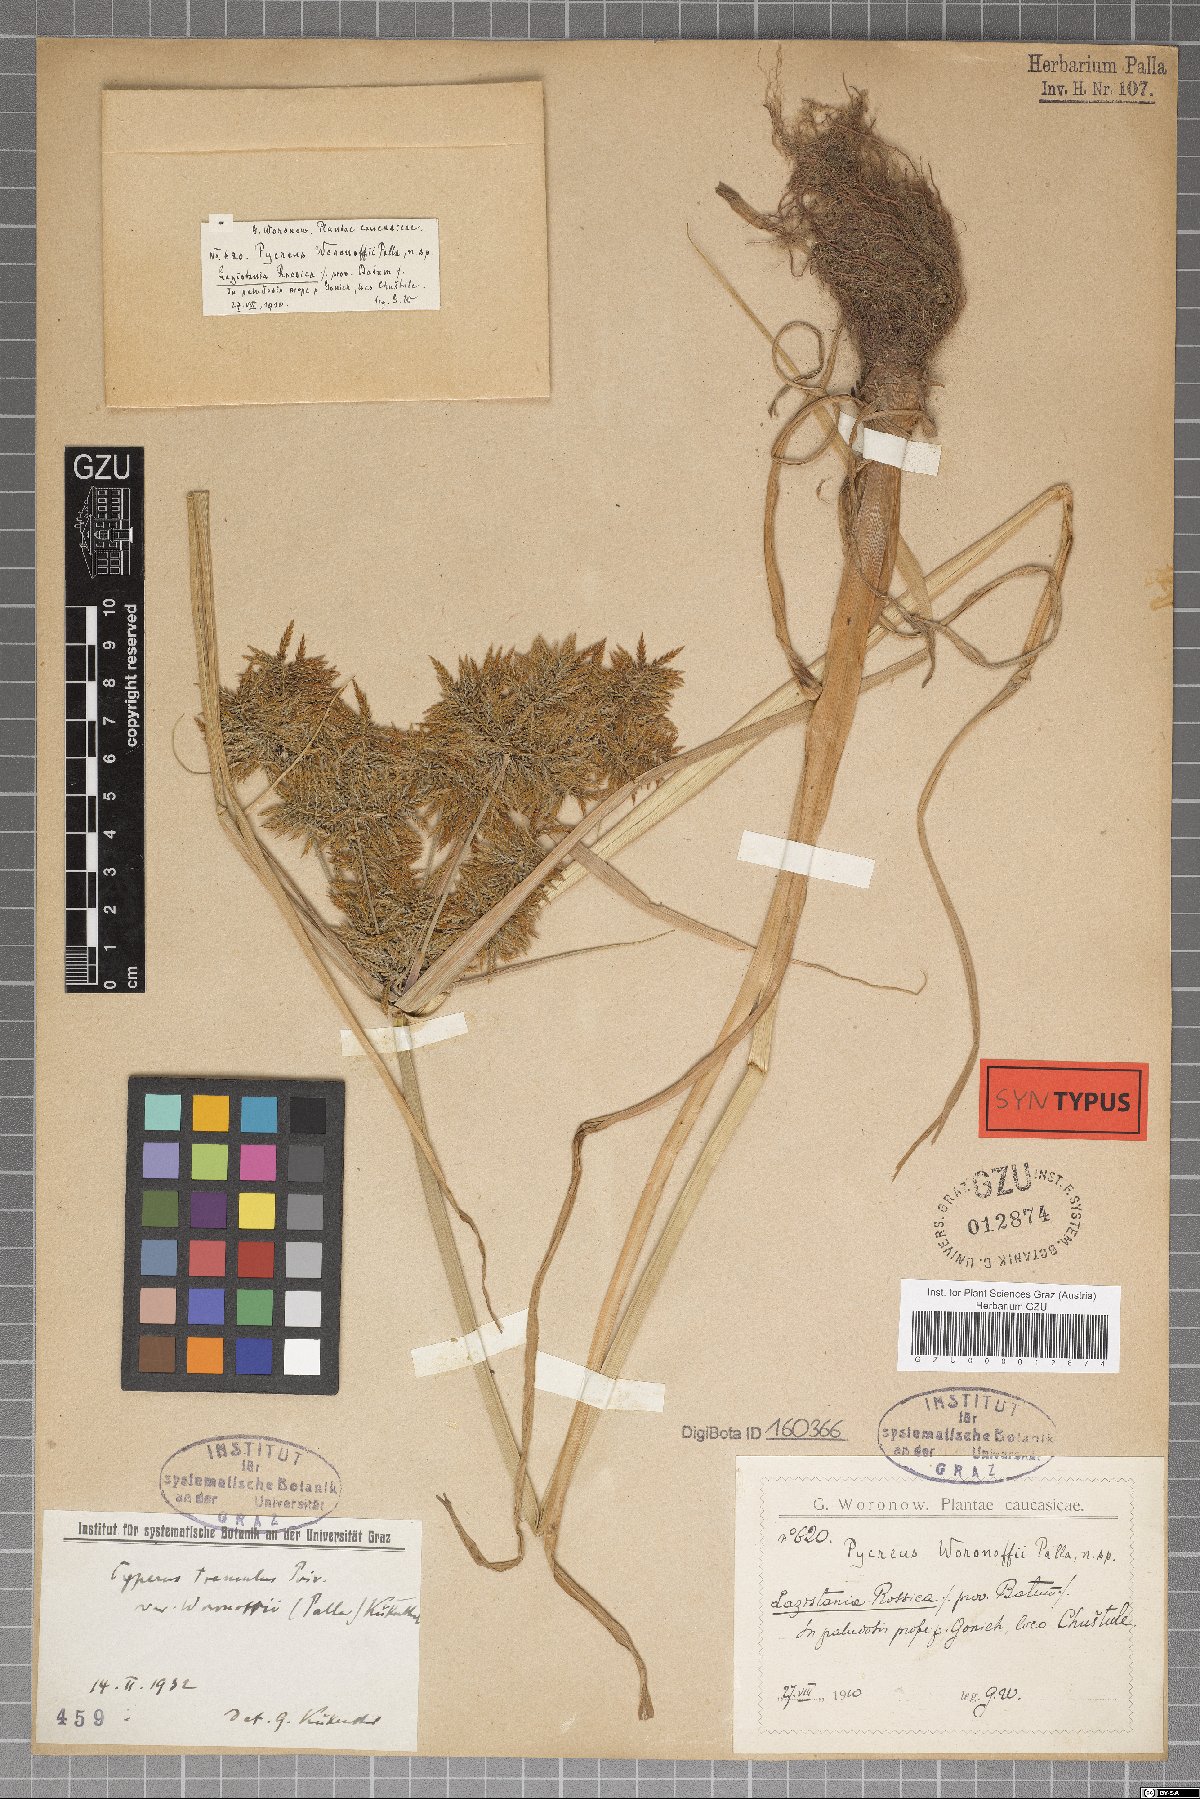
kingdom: Plantae
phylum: Tracheophyta
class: Liliopsida
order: Poales
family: Cyperaceae
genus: Cyperus
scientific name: Cyperus colchicus
